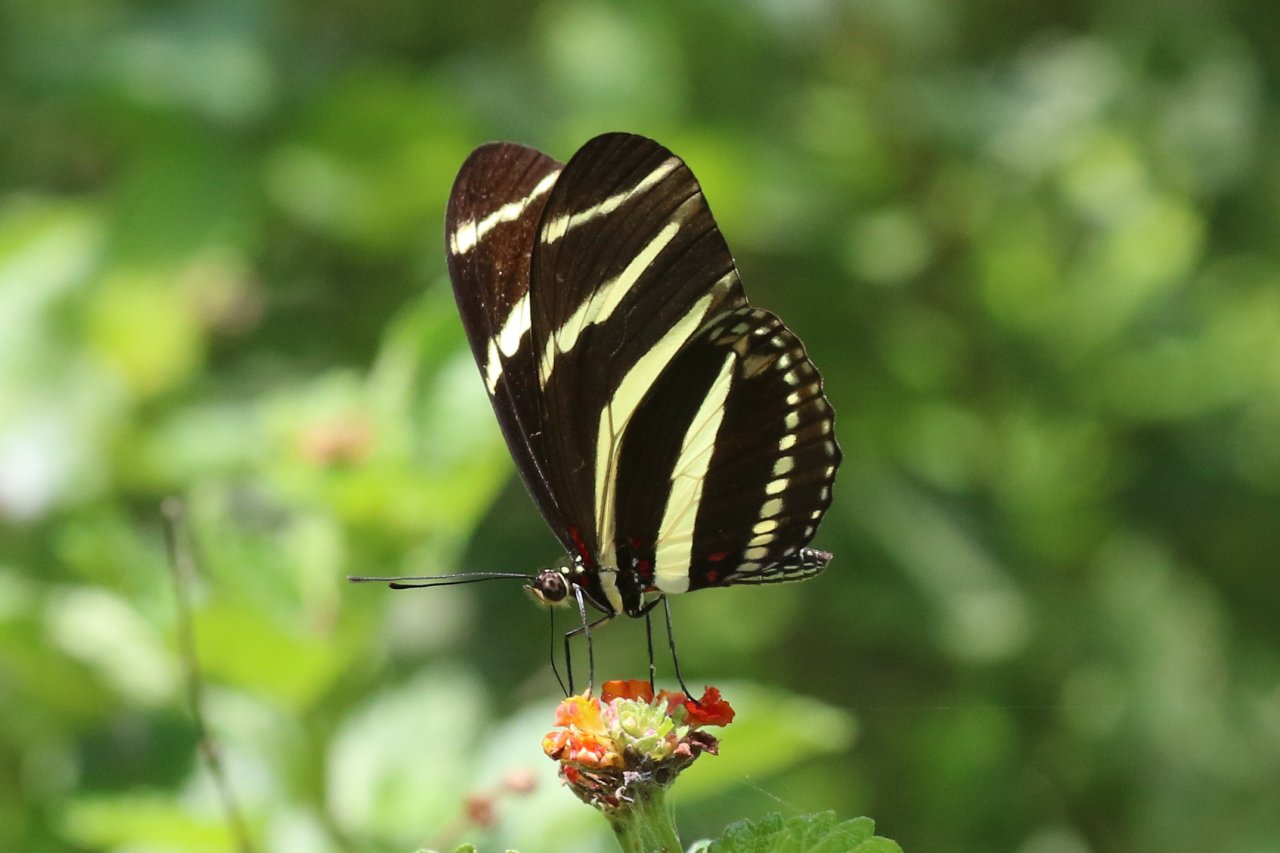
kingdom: Animalia
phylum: Arthropoda
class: Insecta
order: Lepidoptera
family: Nymphalidae
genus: Heliconius
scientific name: Heliconius charithonia
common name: Zebra Longwing
